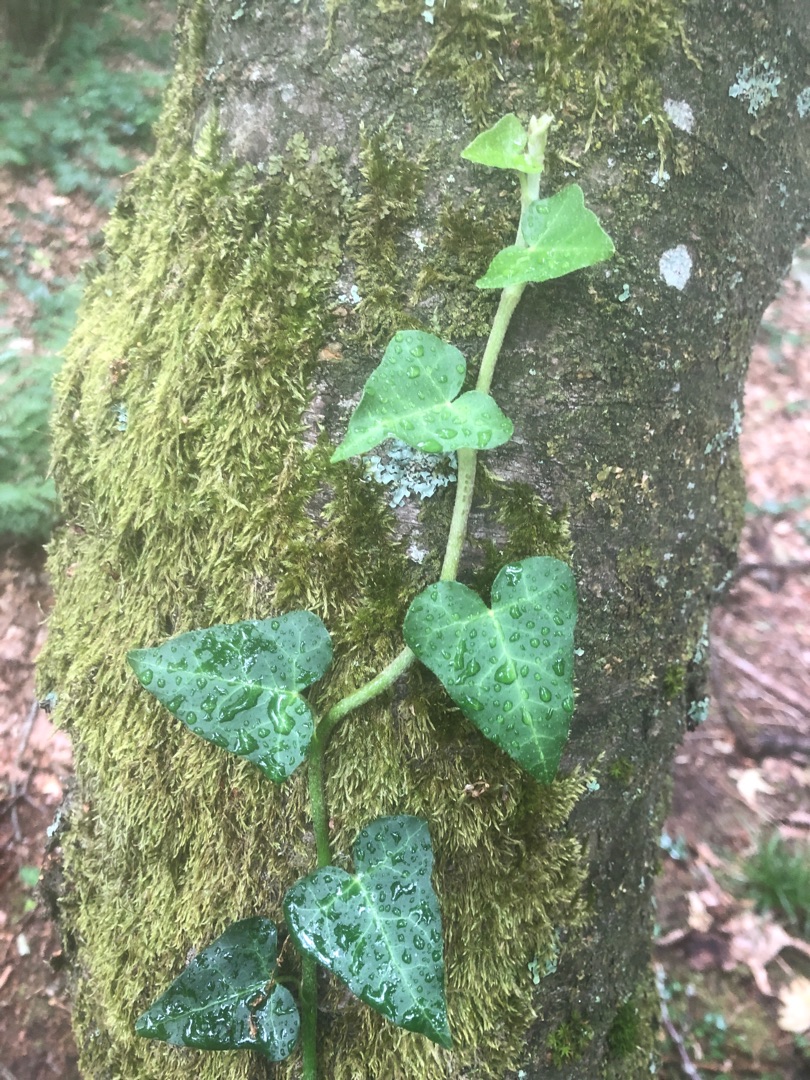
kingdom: Plantae
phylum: Tracheophyta
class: Magnoliopsida
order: Apiales
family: Araliaceae
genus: Hedera
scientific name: Hedera helix
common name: Vedbend
